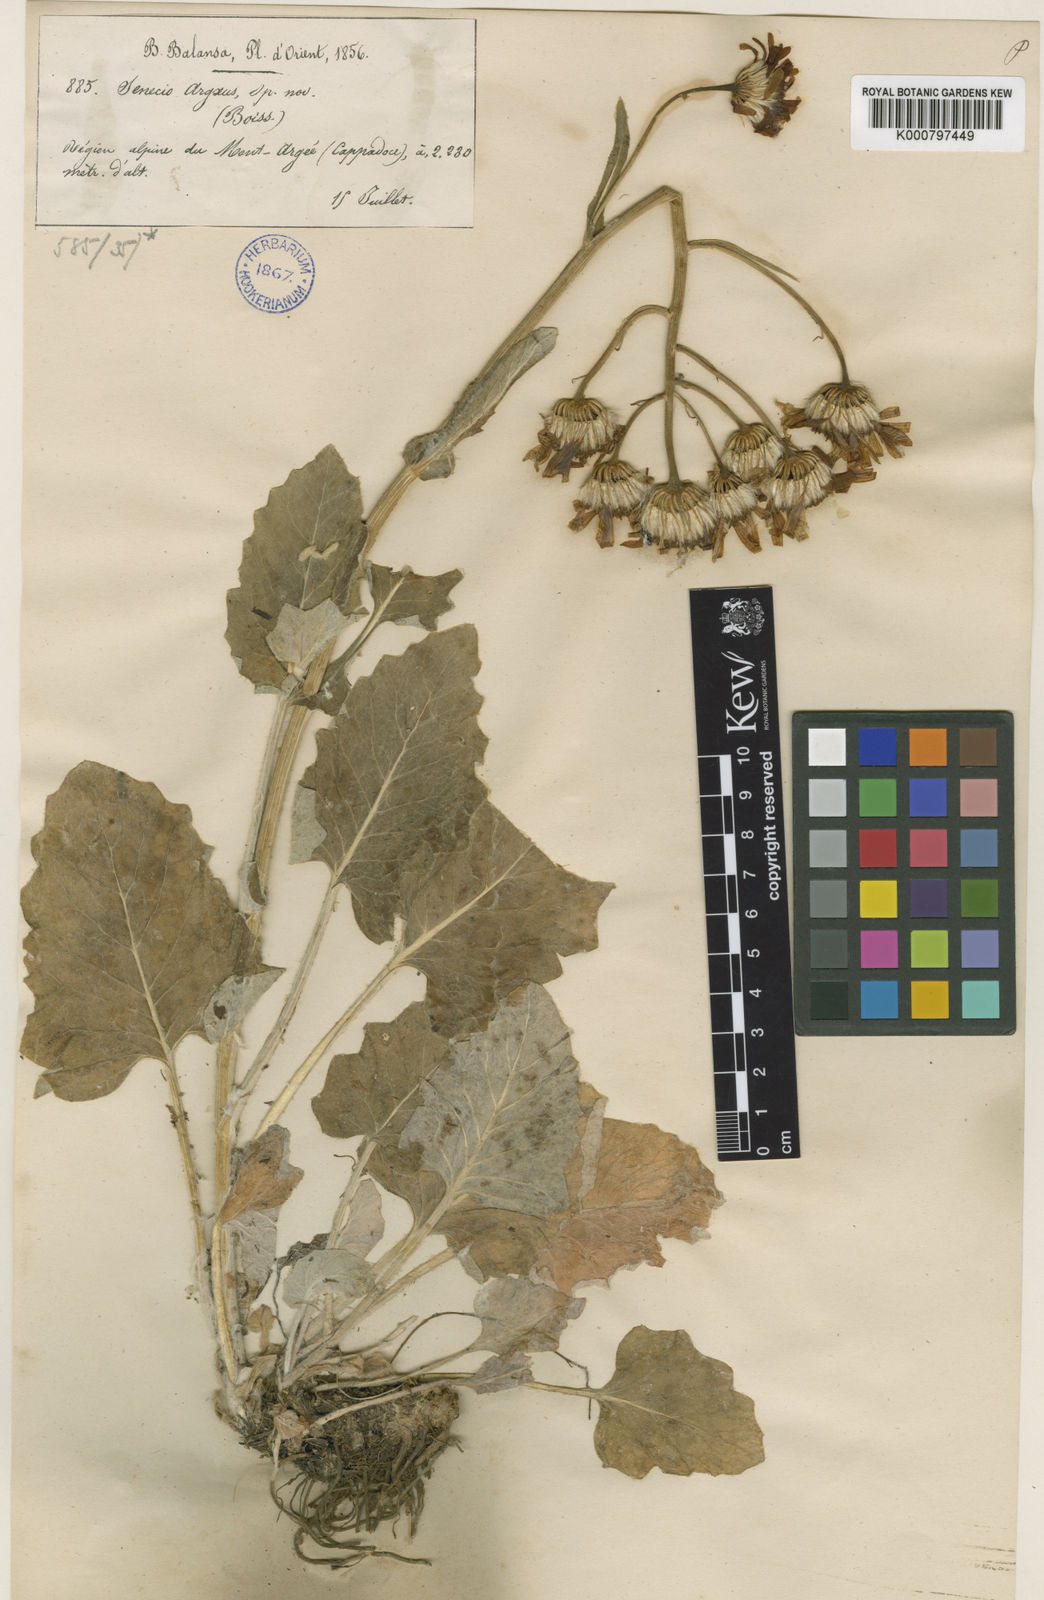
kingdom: Plantae
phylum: Tracheophyta
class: Magnoliopsida
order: Asterales
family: Asteraceae
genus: Turanecio
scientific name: Turanecio hypochionaeus
